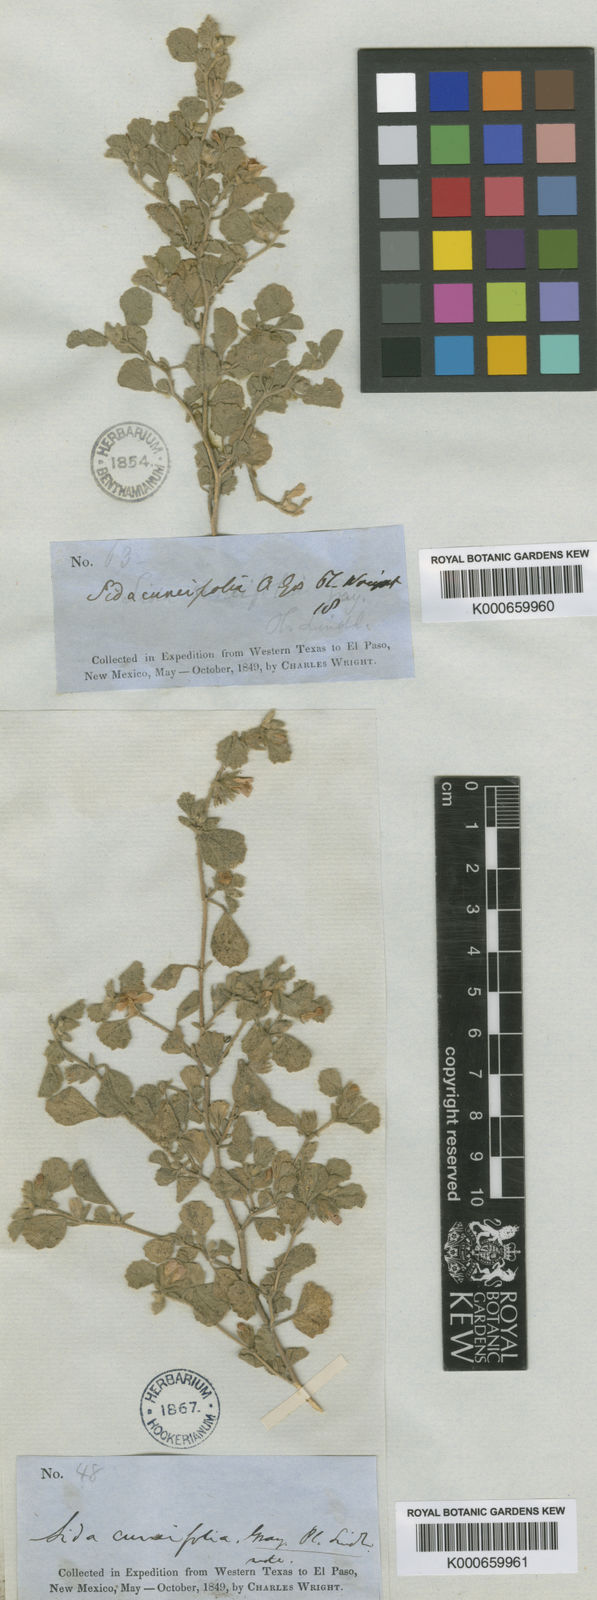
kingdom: Plantae
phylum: Tracheophyta
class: Magnoliopsida
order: Malvales
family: Malvaceae
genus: Billieturnera
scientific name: Billieturnera helleri
